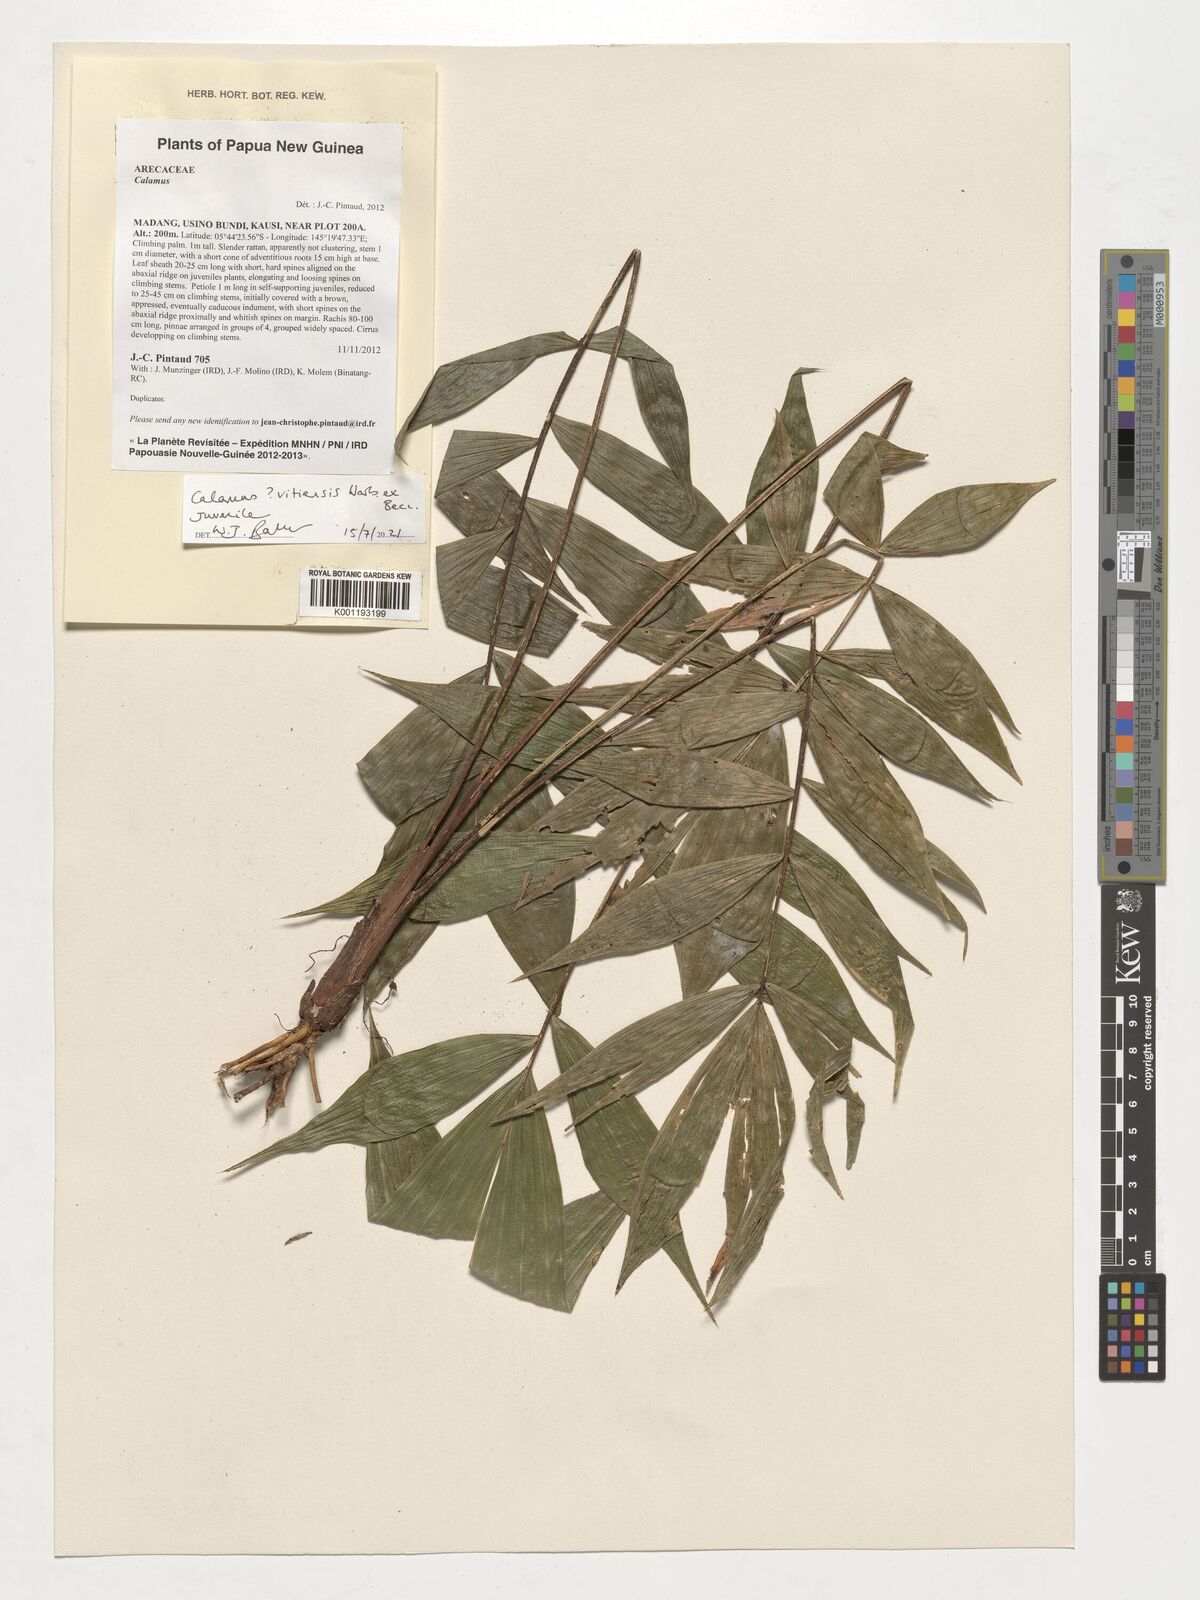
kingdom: Plantae
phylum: Tracheophyta
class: Liliopsida
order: Arecales
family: Arecaceae
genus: Calamus
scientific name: Calamus vitiensis
